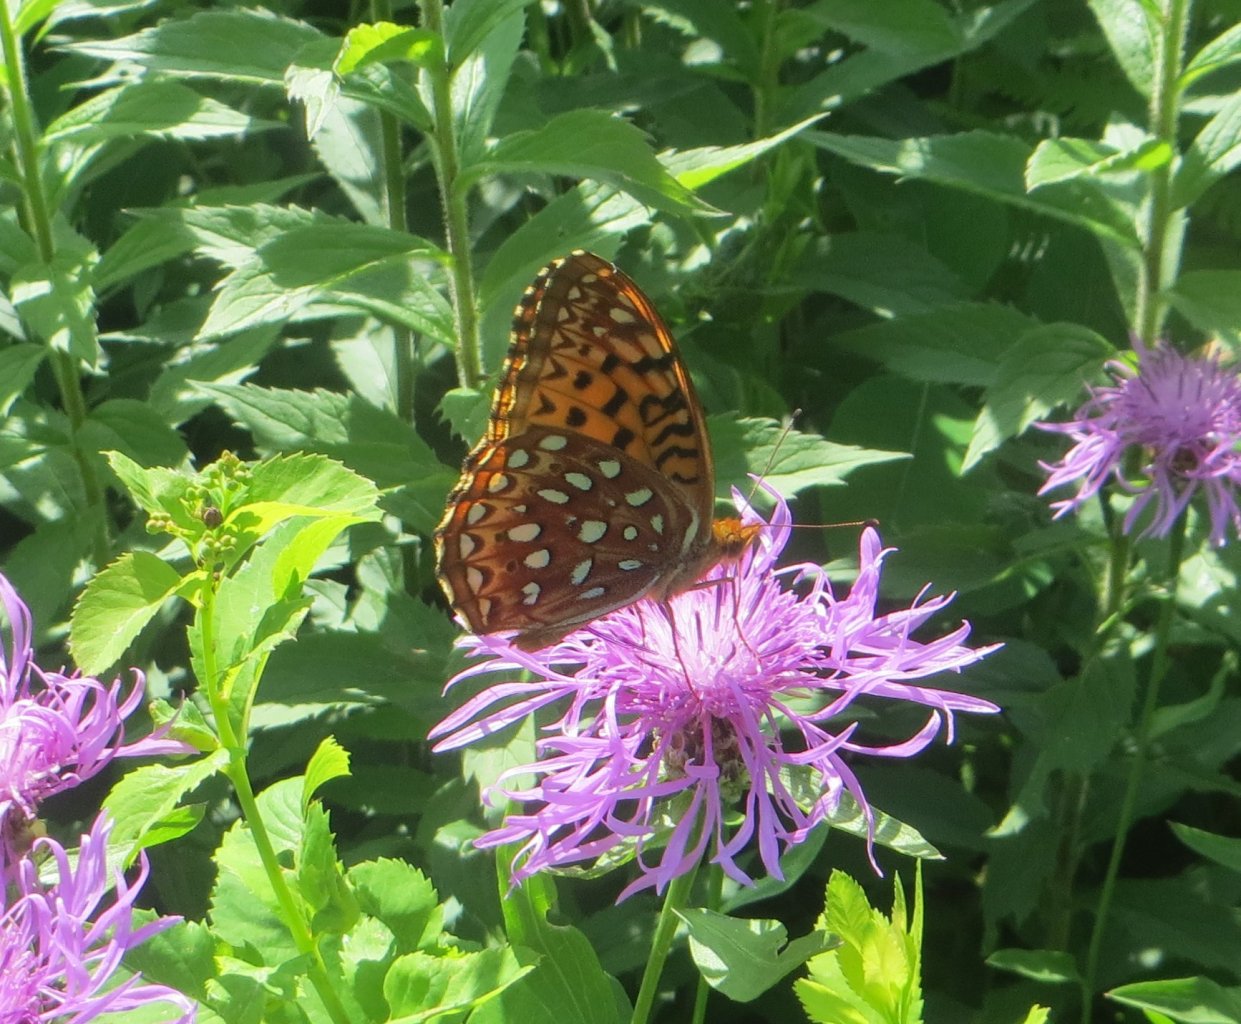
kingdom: Animalia
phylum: Arthropoda
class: Insecta
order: Lepidoptera
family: Nymphalidae
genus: Speyeria
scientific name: Speyeria aphrodite
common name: Aphrodite Fritillary
